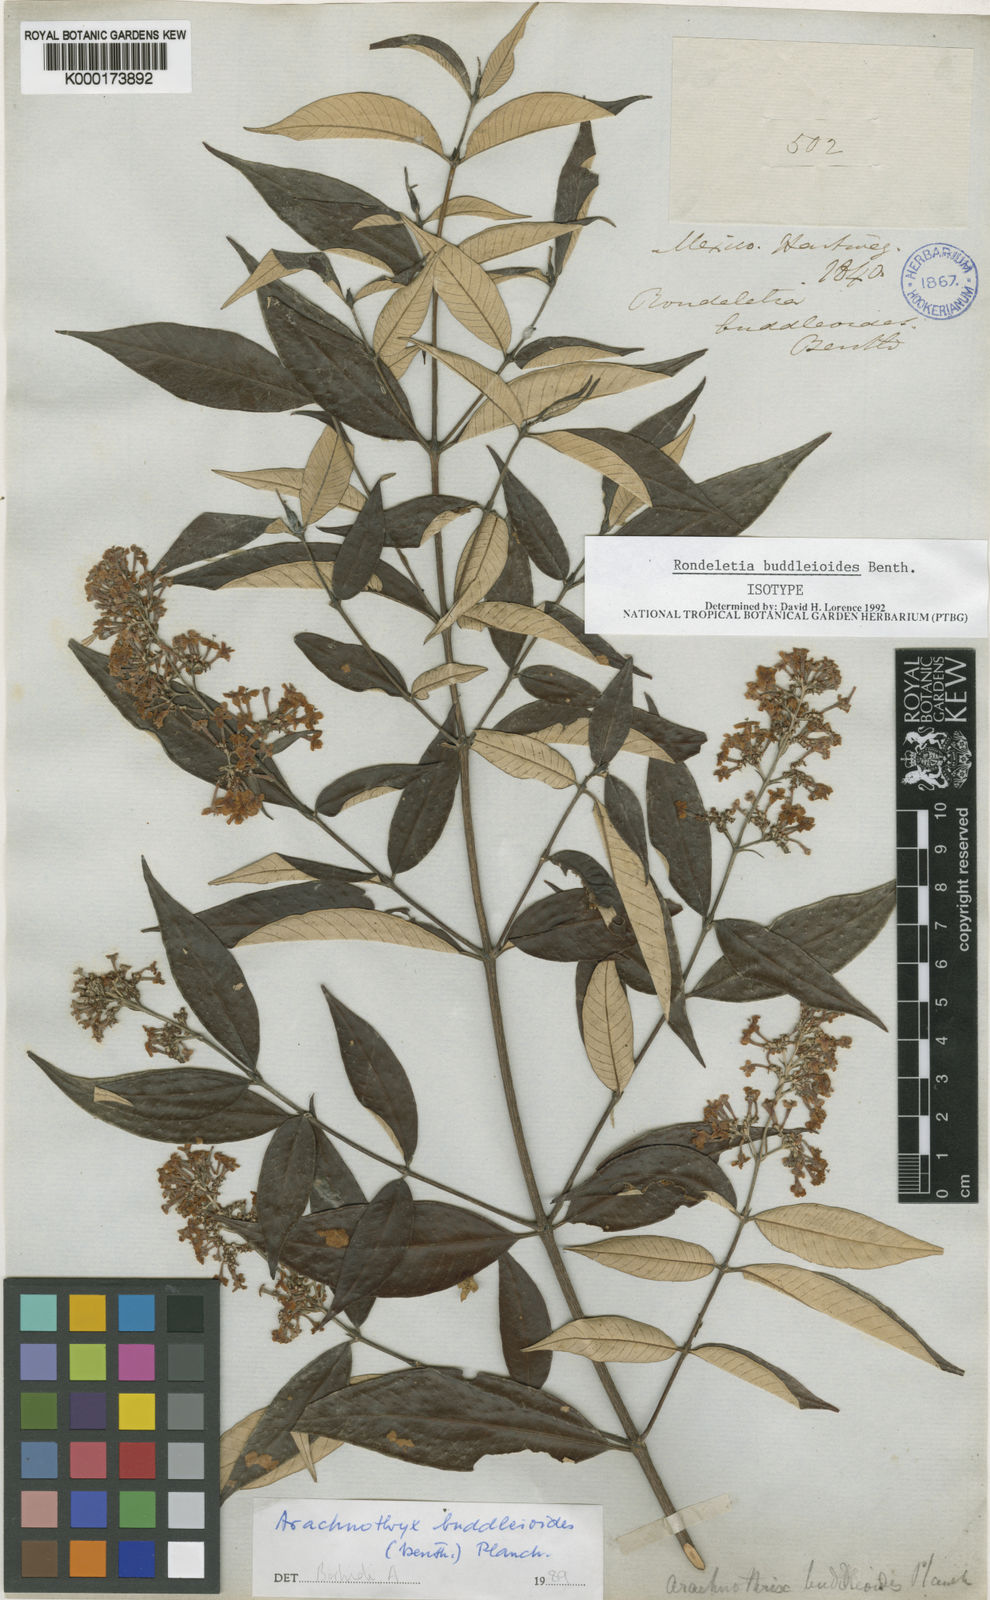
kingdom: Plantae
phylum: Tracheophyta
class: Magnoliopsida
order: Gentianales
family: Rubiaceae
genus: Arachnothryx
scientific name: Arachnothryx buddleioides
